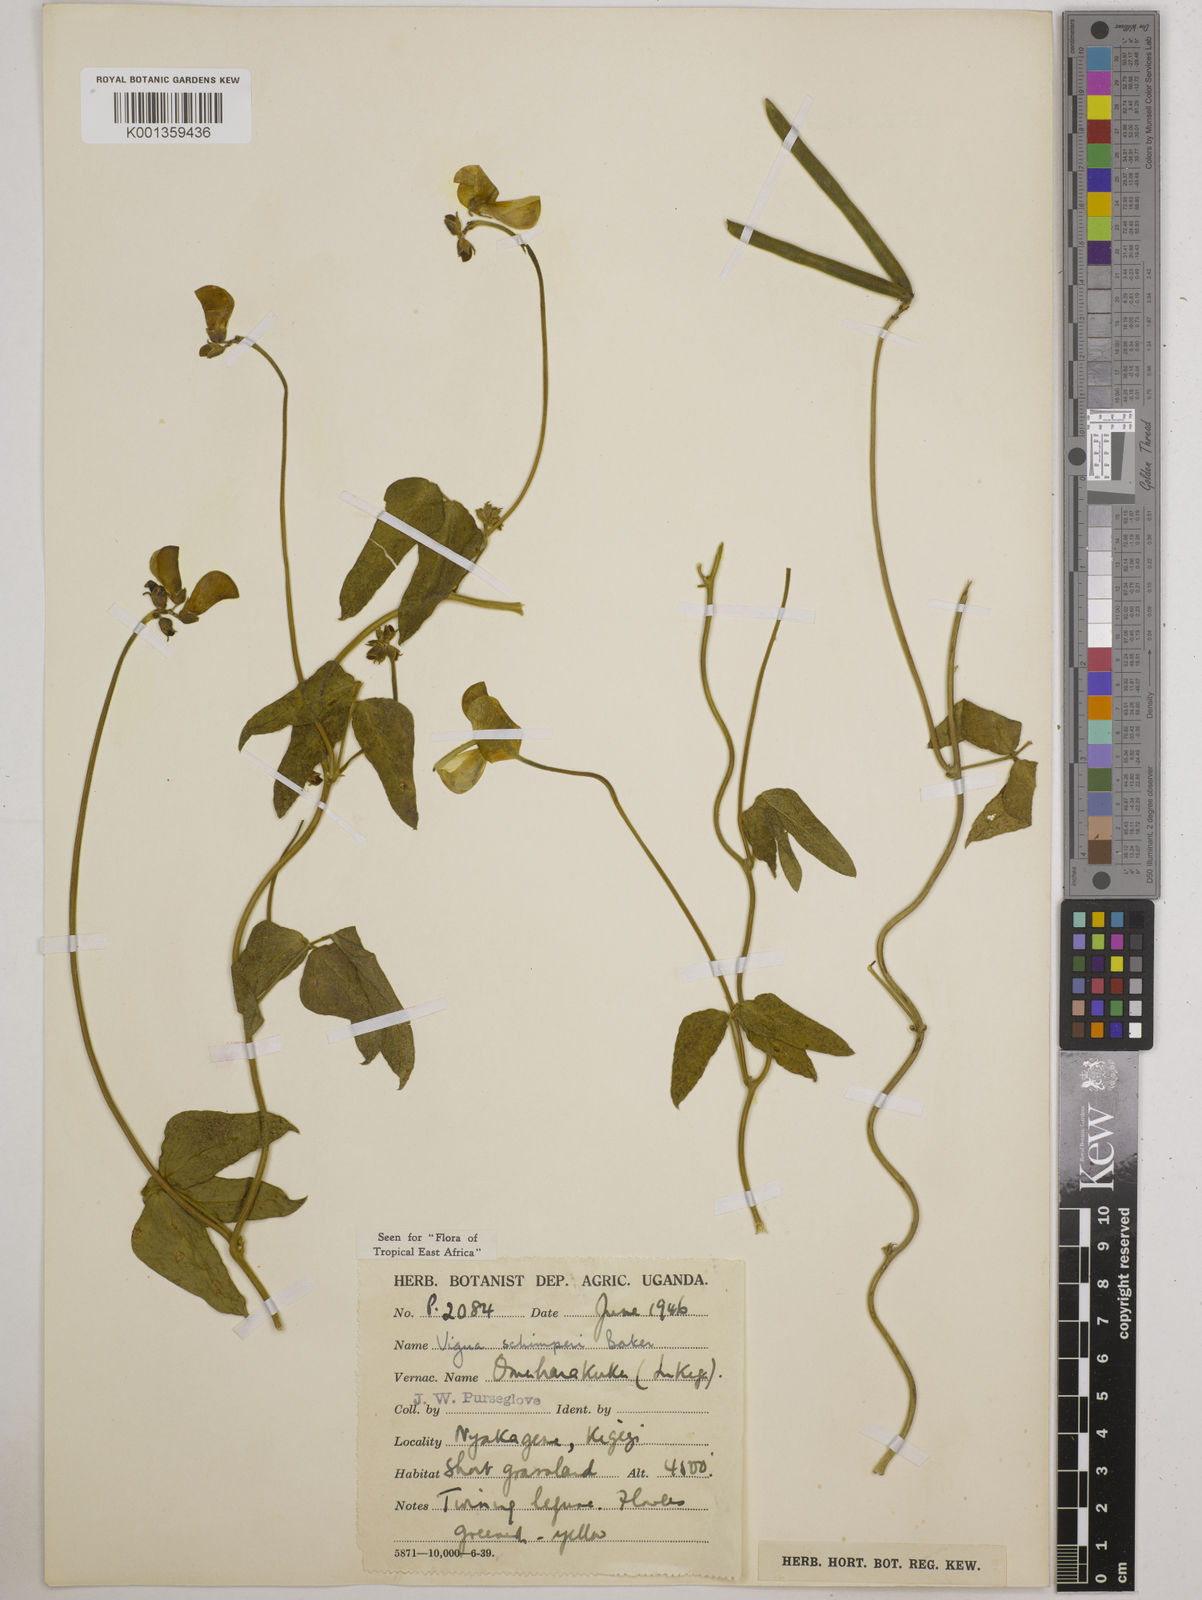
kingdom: Plantae
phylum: Tracheophyta
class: Magnoliopsida
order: Fabales
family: Fabaceae
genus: Vigna
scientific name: Vigna schimperi
